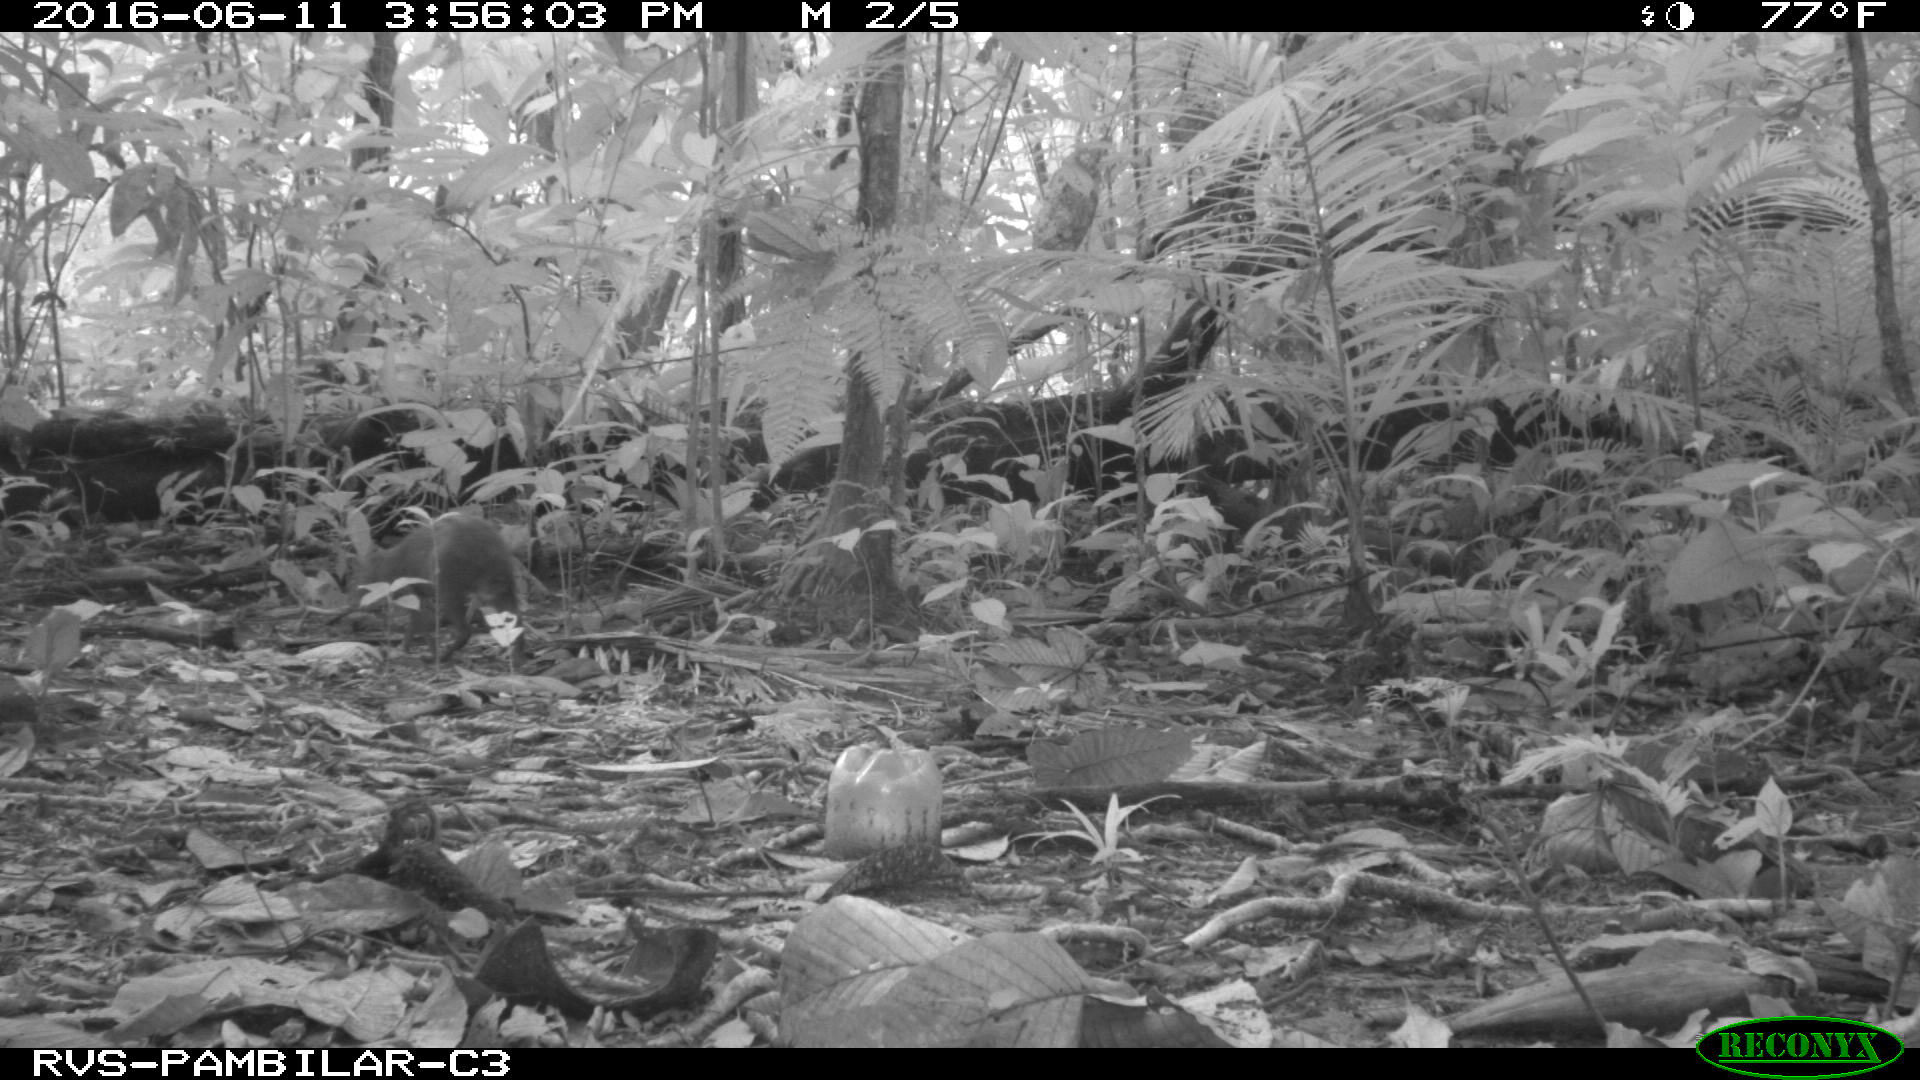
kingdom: Animalia
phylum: Chordata
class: Mammalia
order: Rodentia
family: Dasyproctidae
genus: Dasyprocta
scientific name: Dasyprocta punctata
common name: Central american agouti
